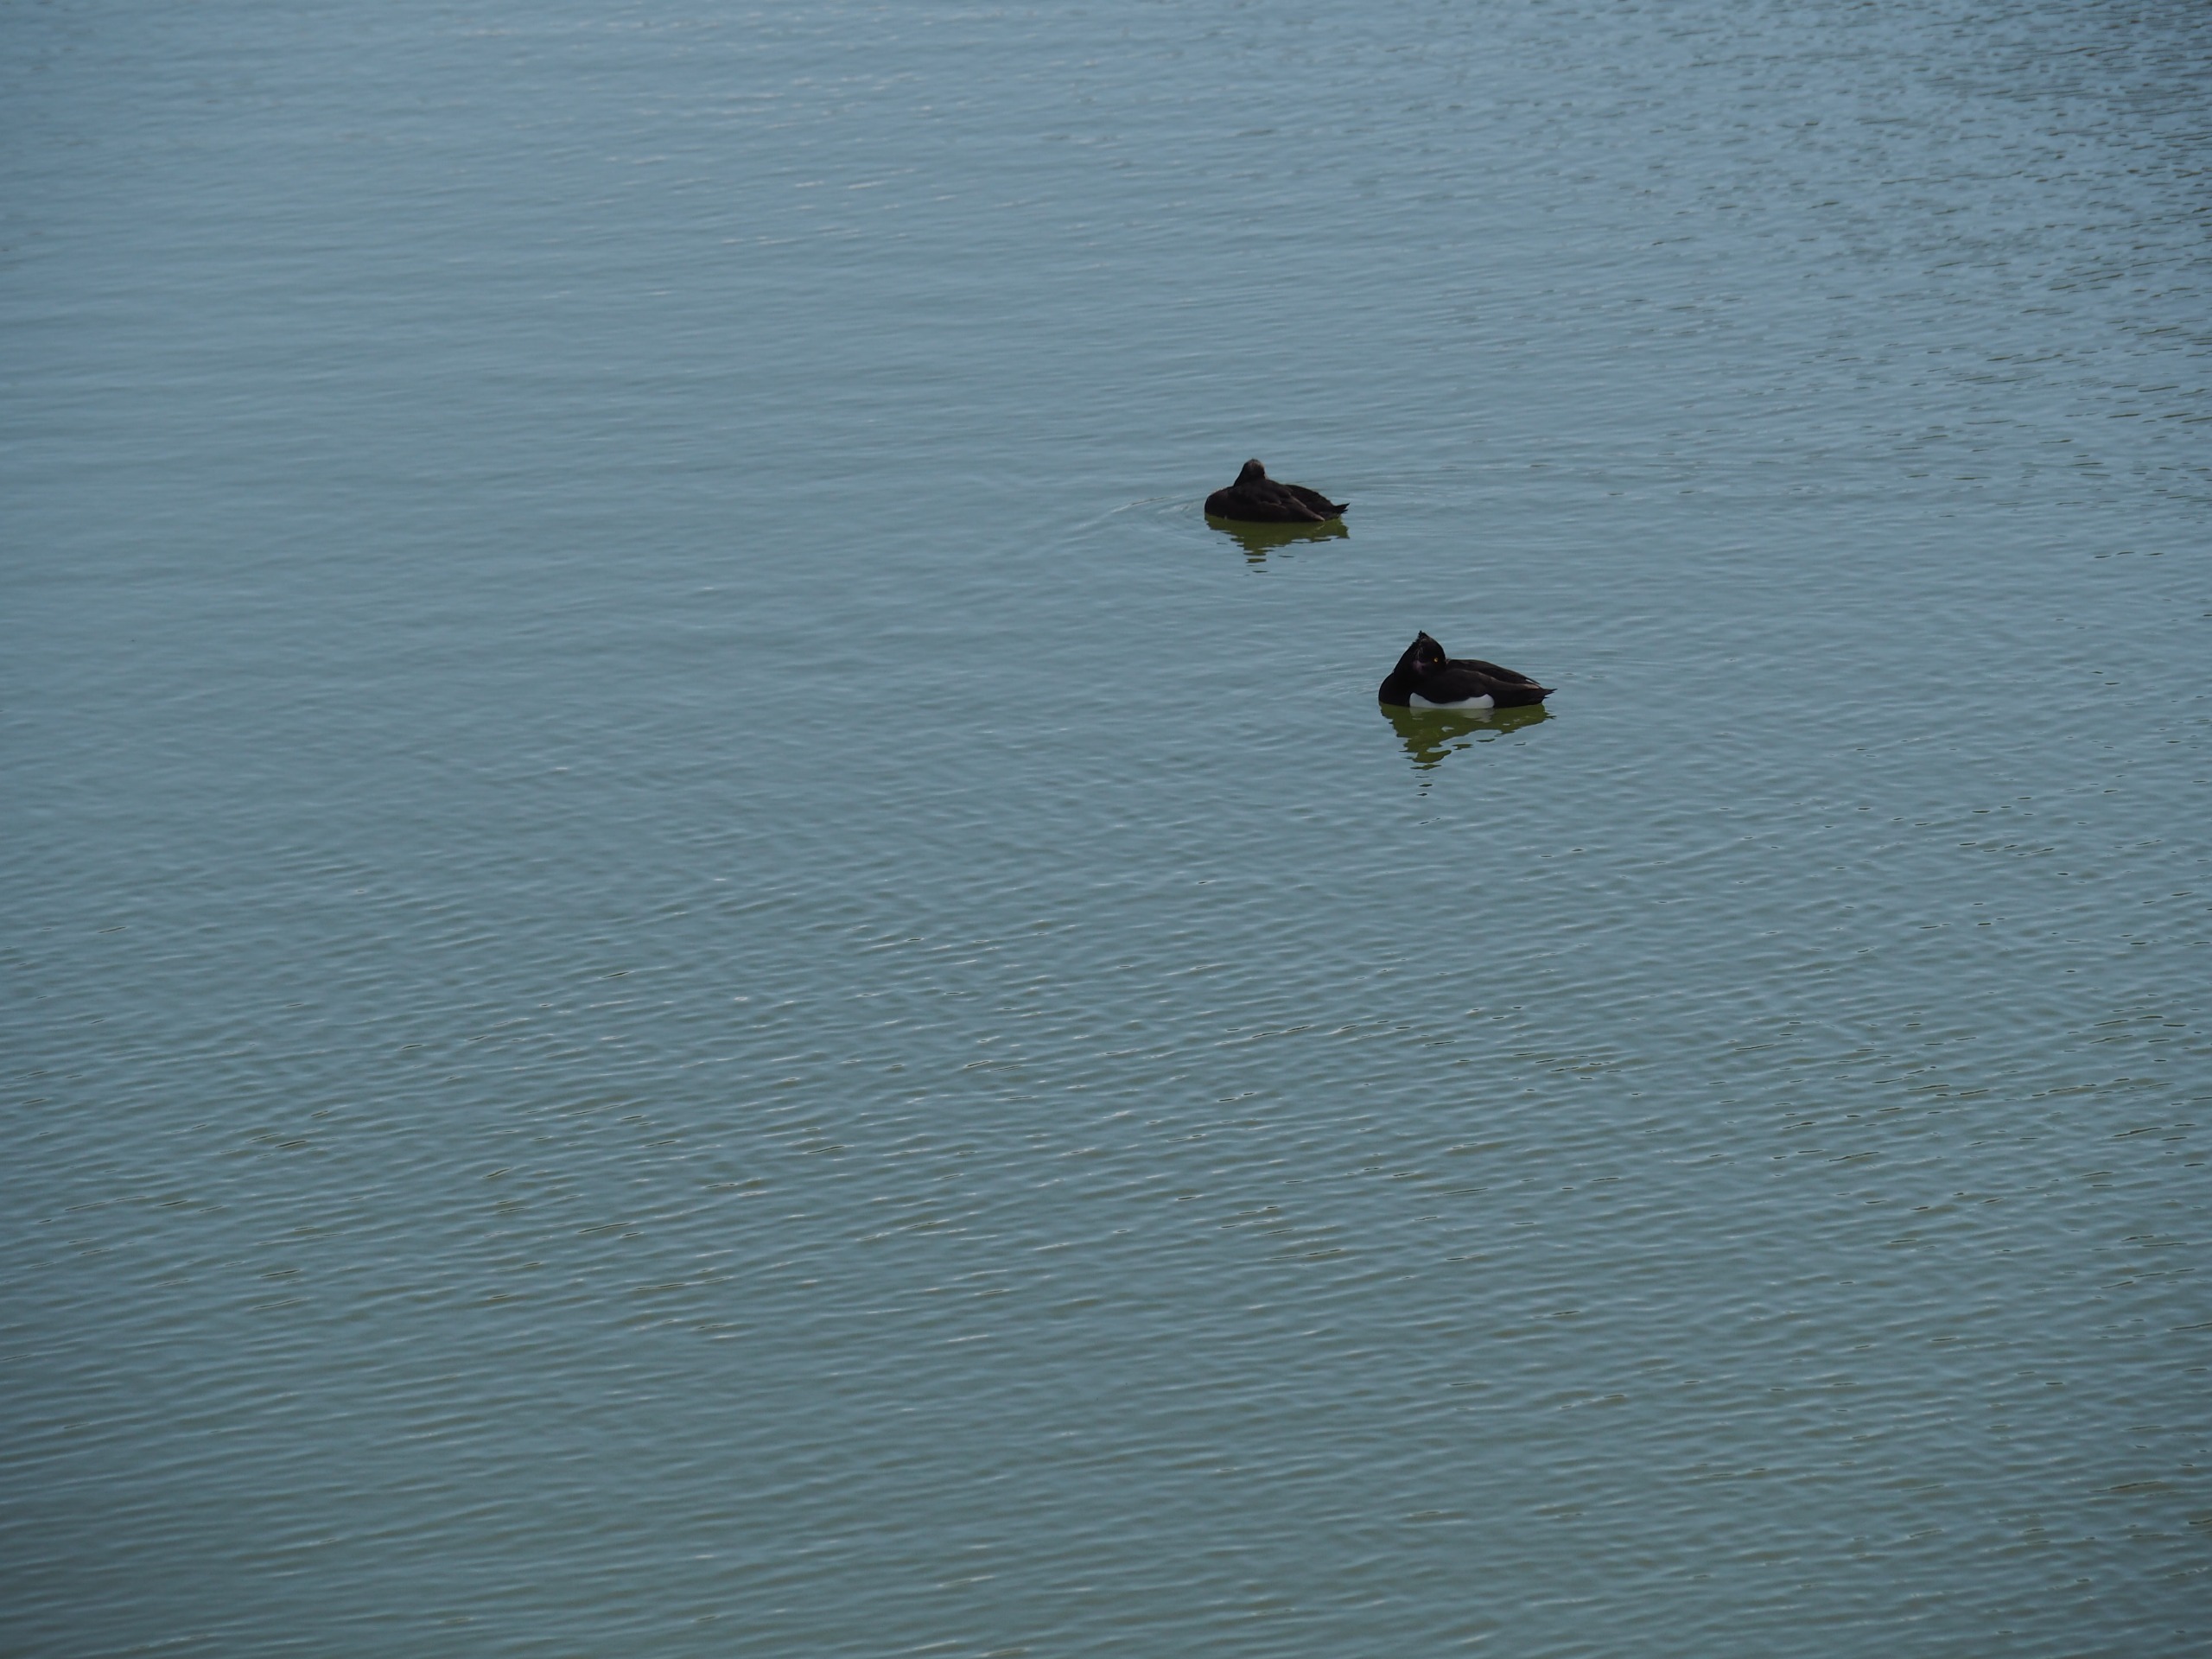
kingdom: Animalia
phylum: Chordata
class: Aves
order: Anseriformes
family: Anatidae
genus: Aythya
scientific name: Aythya fuligula
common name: Troldand
